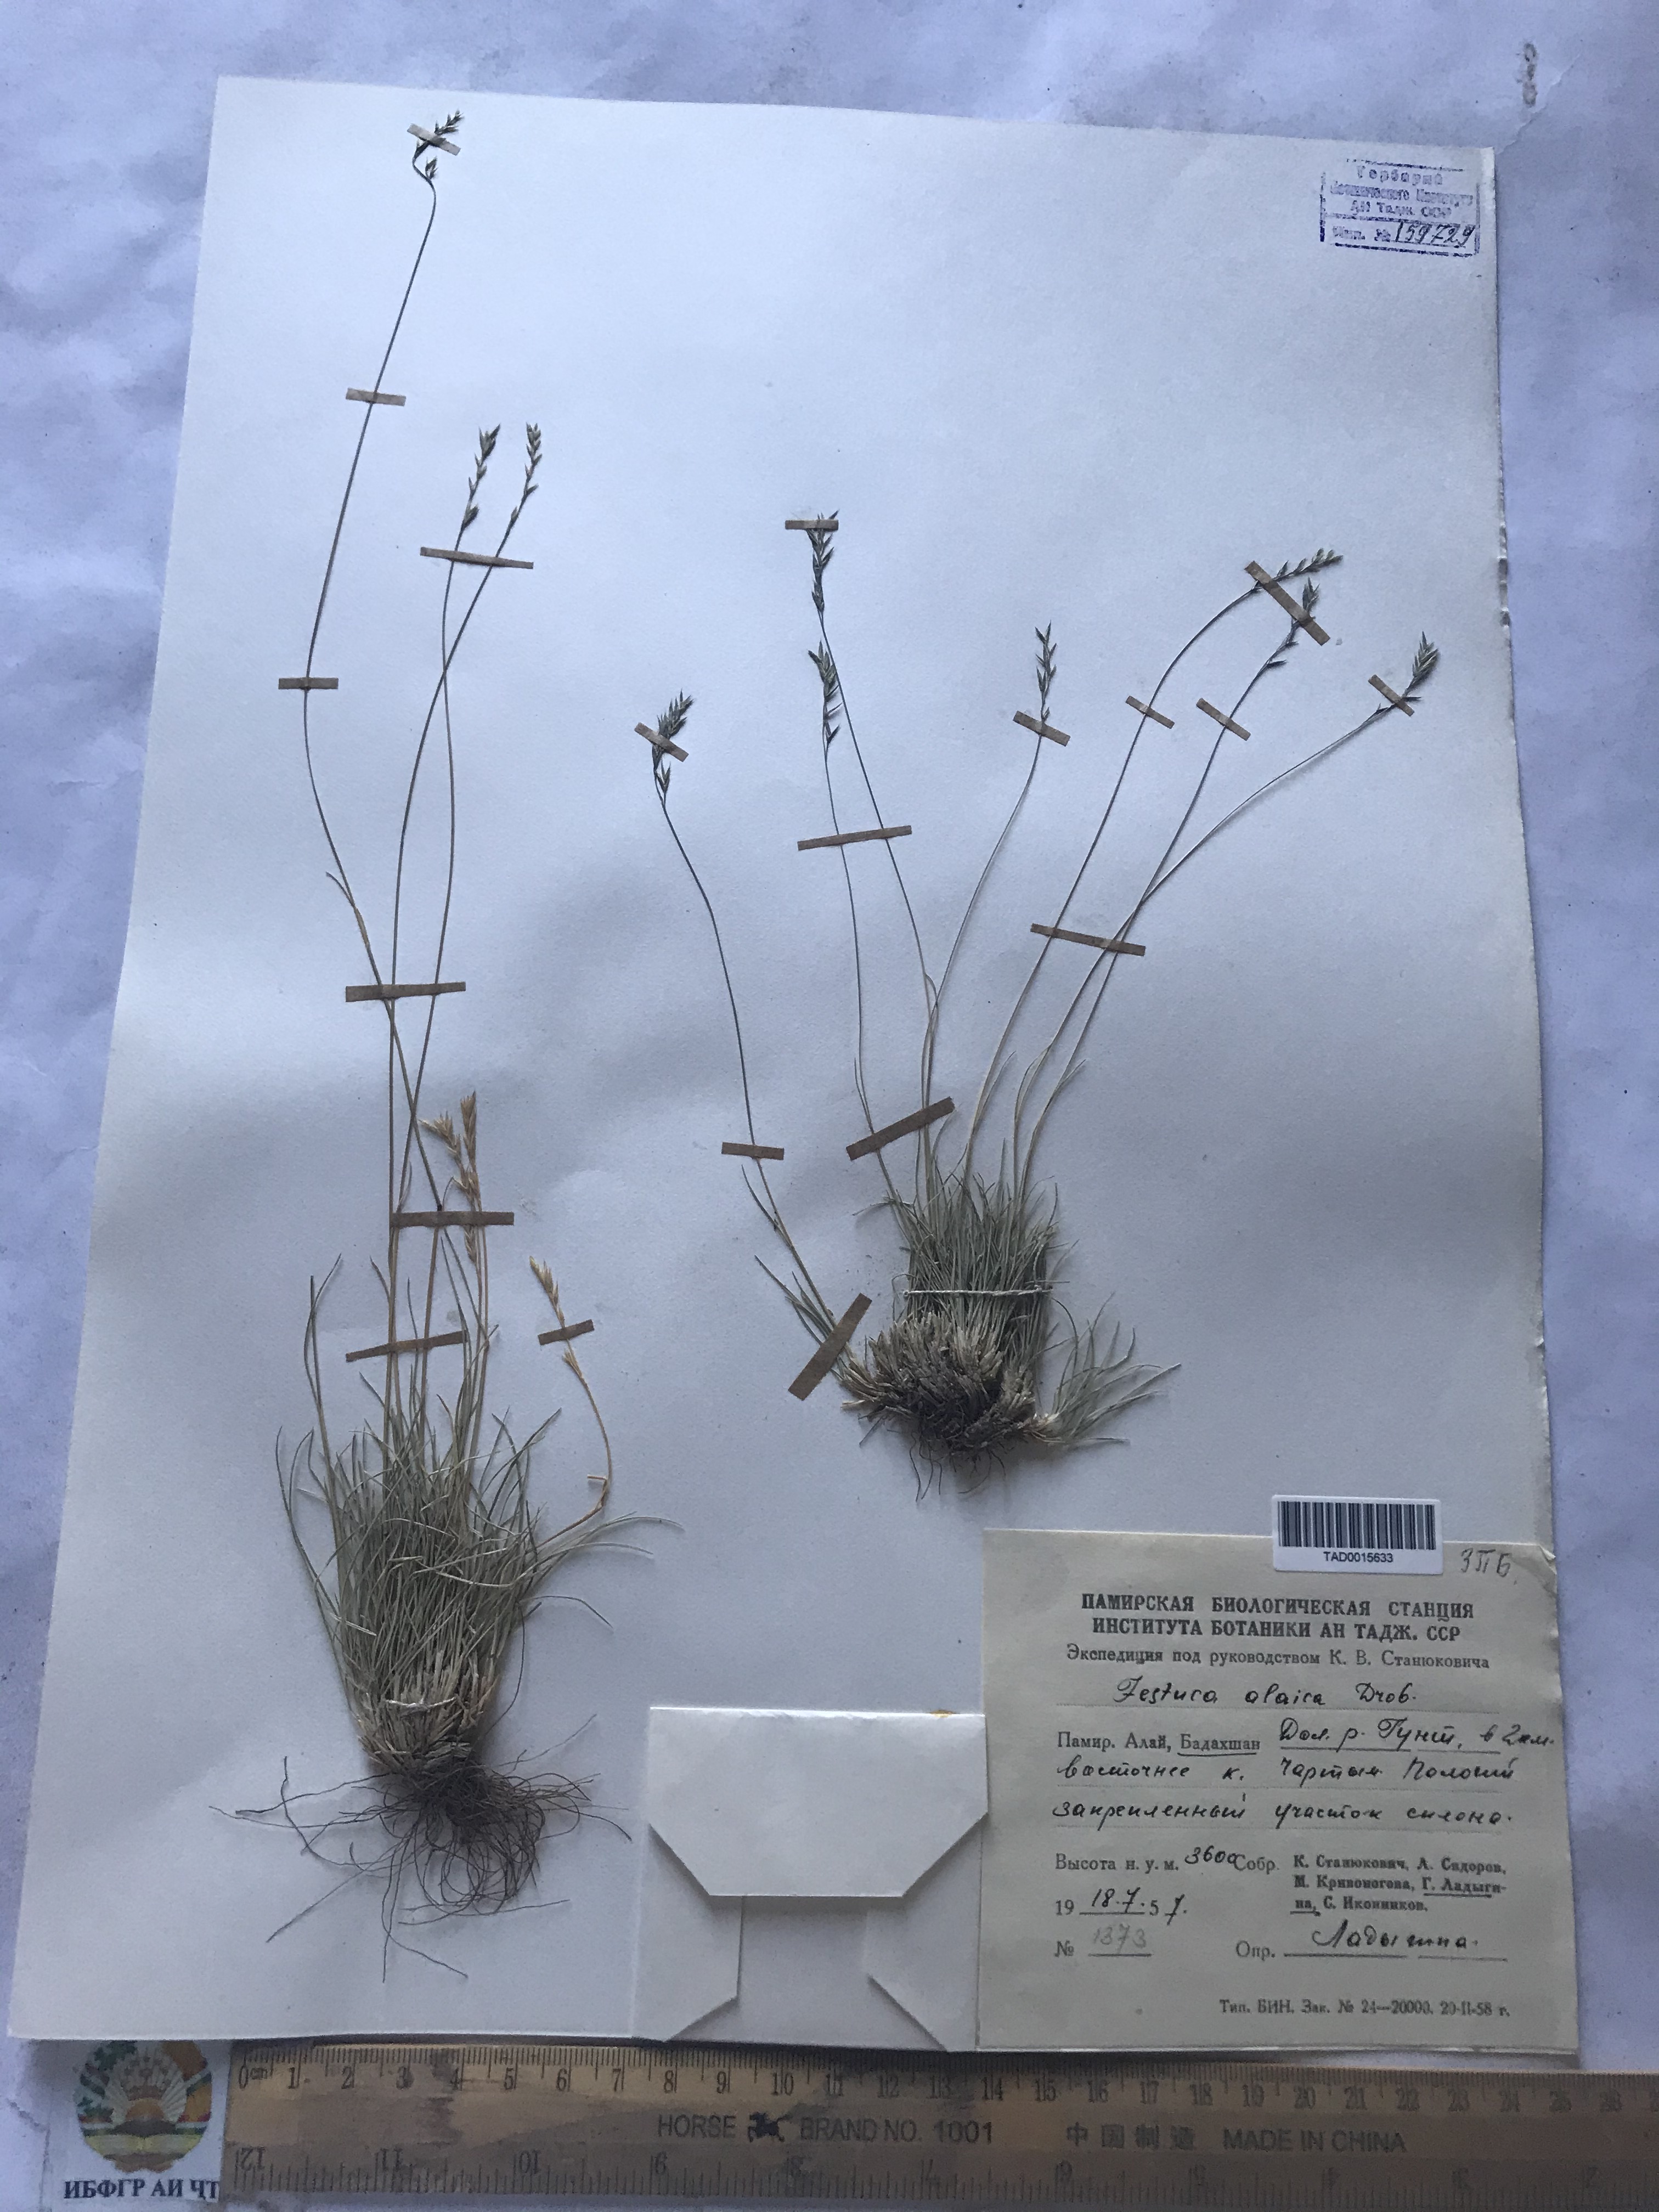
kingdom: Plantae
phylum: Tracheophyta
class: Liliopsida
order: Poales
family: Poaceae
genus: Festuca
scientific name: Festuca alaica
